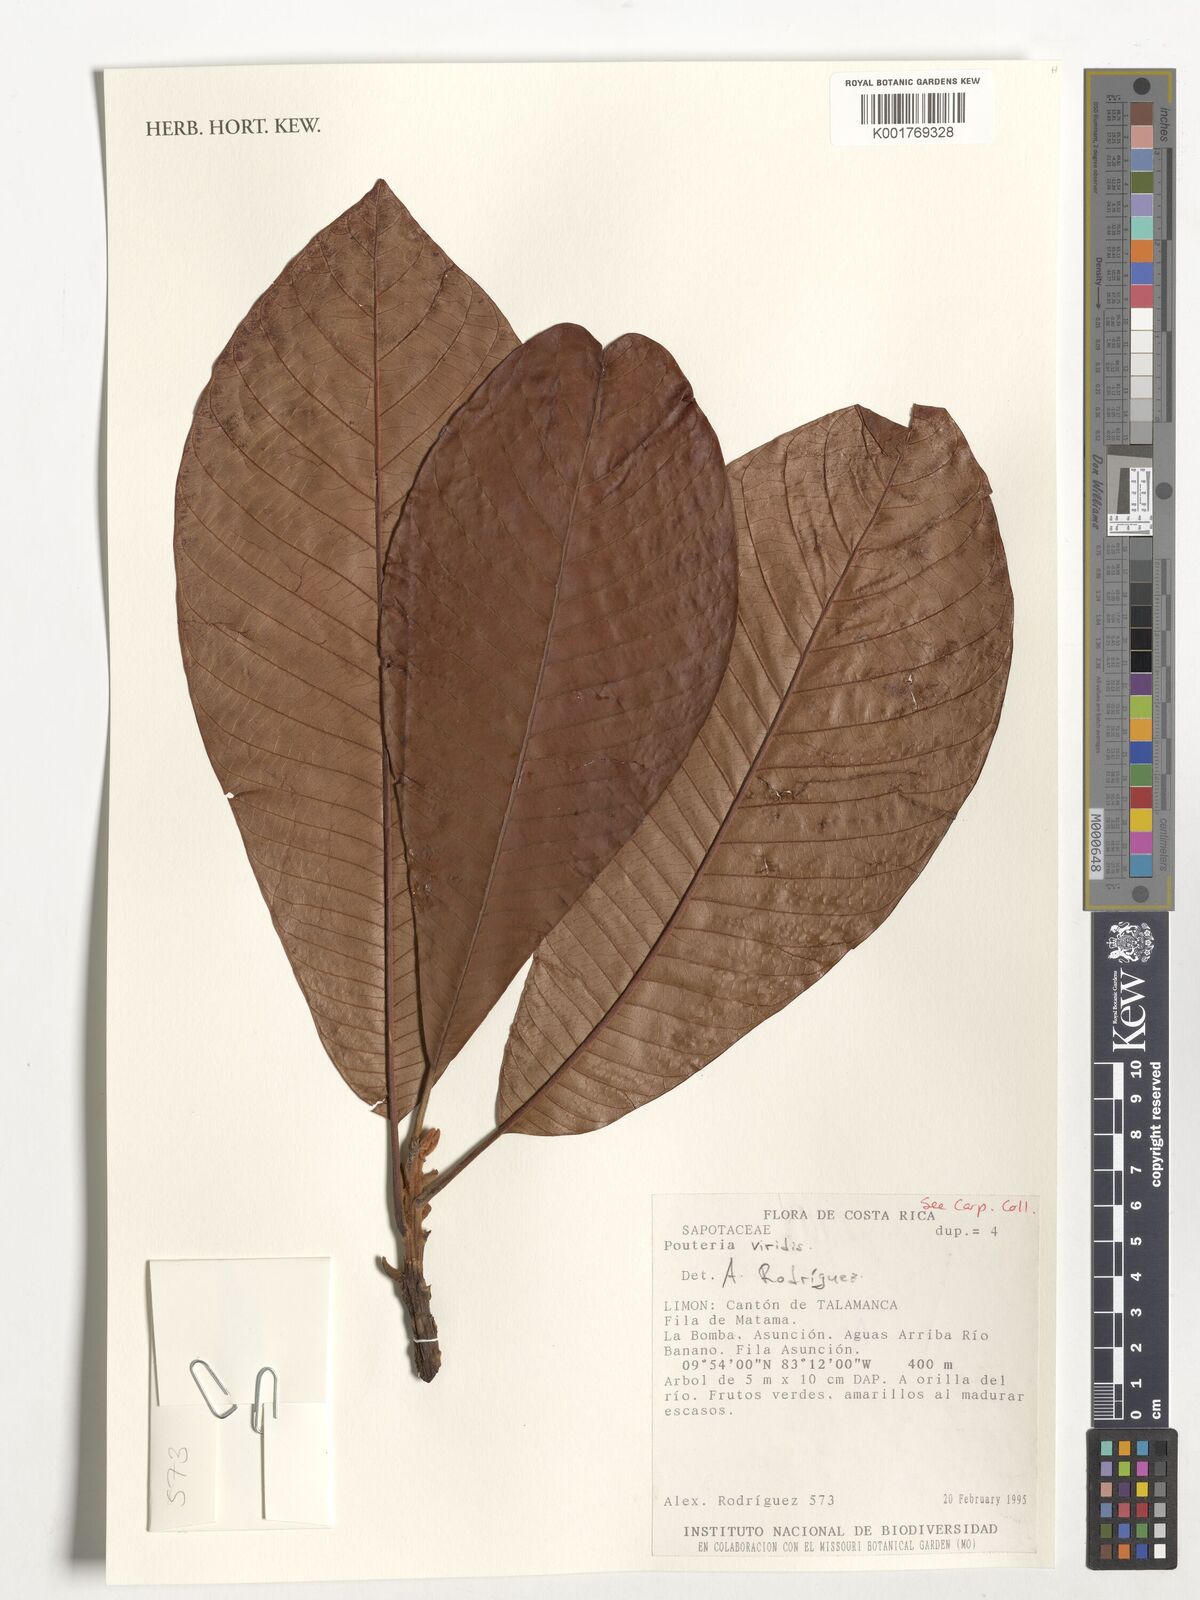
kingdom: Plantae
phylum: Tracheophyta
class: Magnoliopsida
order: Ericales
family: Sapotaceae
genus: Pouteria
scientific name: Pouteria viridis
